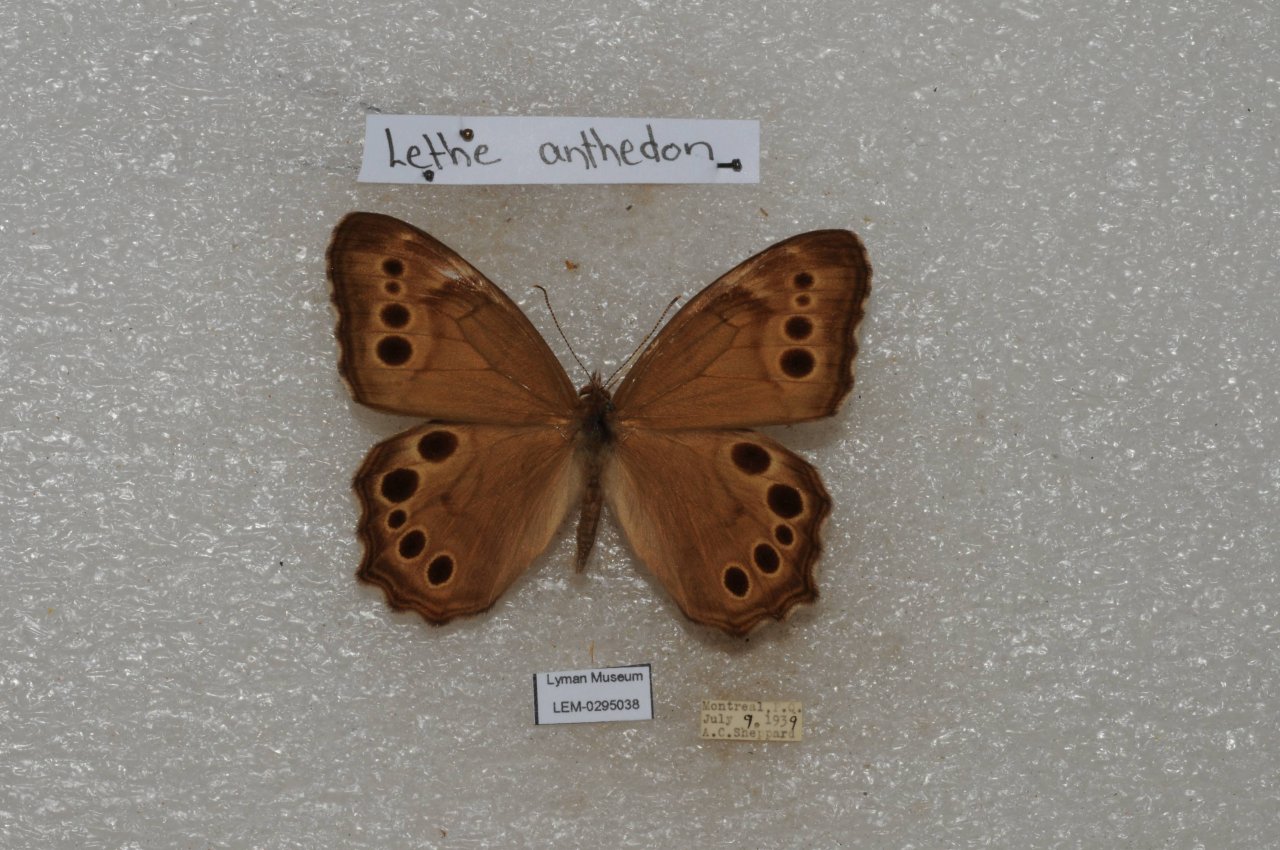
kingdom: Animalia
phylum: Arthropoda
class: Insecta
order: Lepidoptera
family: Nymphalidae
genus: Lethe
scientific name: Lethe anthedon
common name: Northern Pearly-Eye
